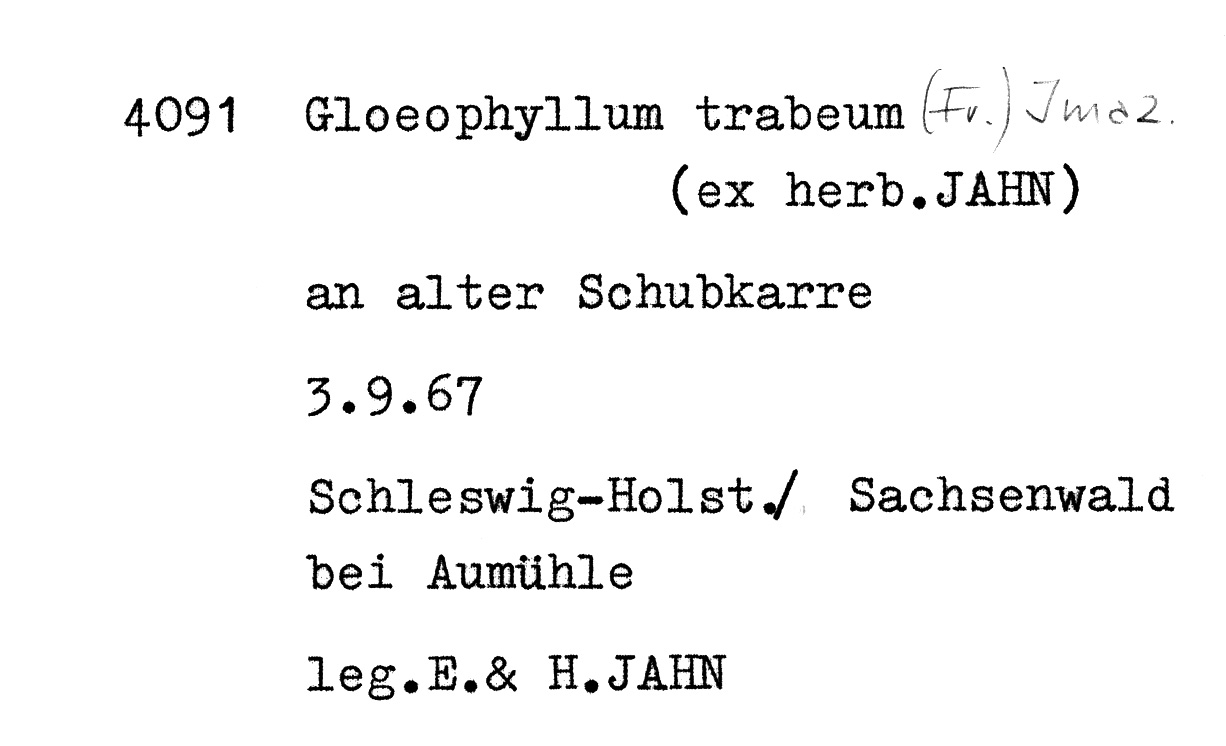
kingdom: Fungi
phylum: Basidiomycota
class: Agaricomycetes
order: Gloeophyllales
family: Gloeophyllaceae
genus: Gloeophyllum
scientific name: Gloeophyllum
